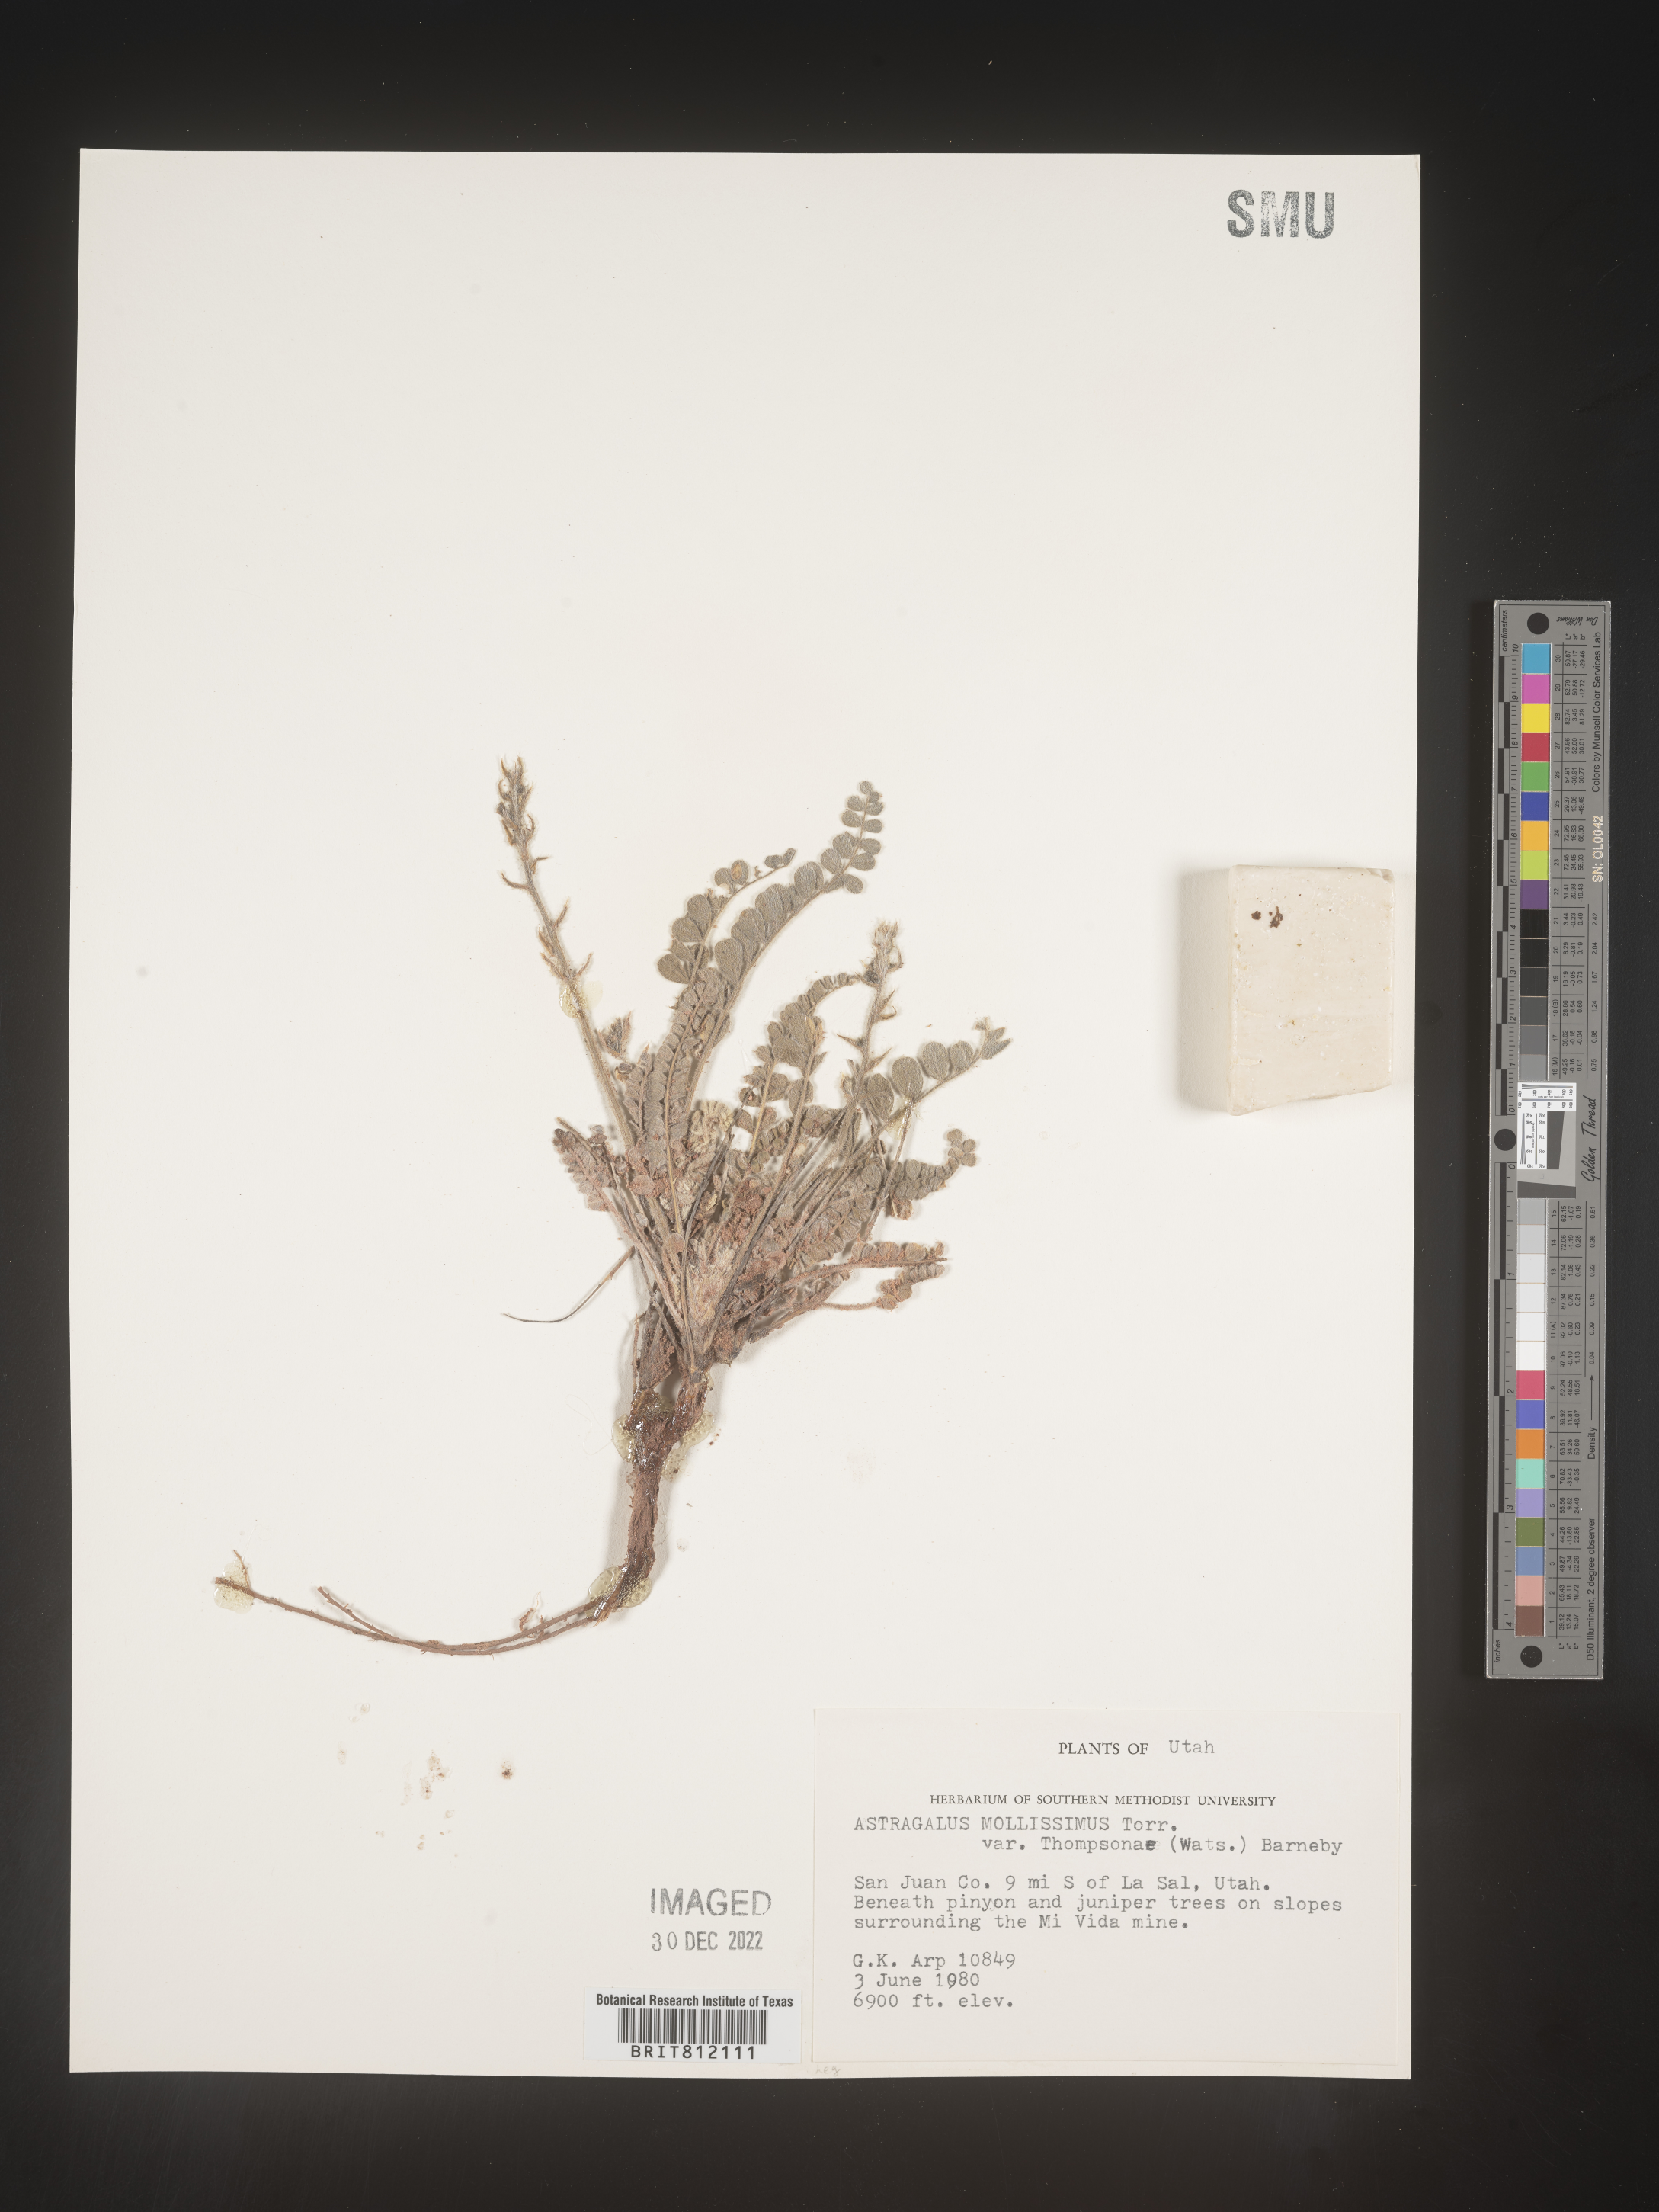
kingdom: Plantae
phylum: Tracheophyta
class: Magnoliopsida
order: Fabales
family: Fabaceae
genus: Astragalus
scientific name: Astragalus mollissimus
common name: Woolly locoweed
